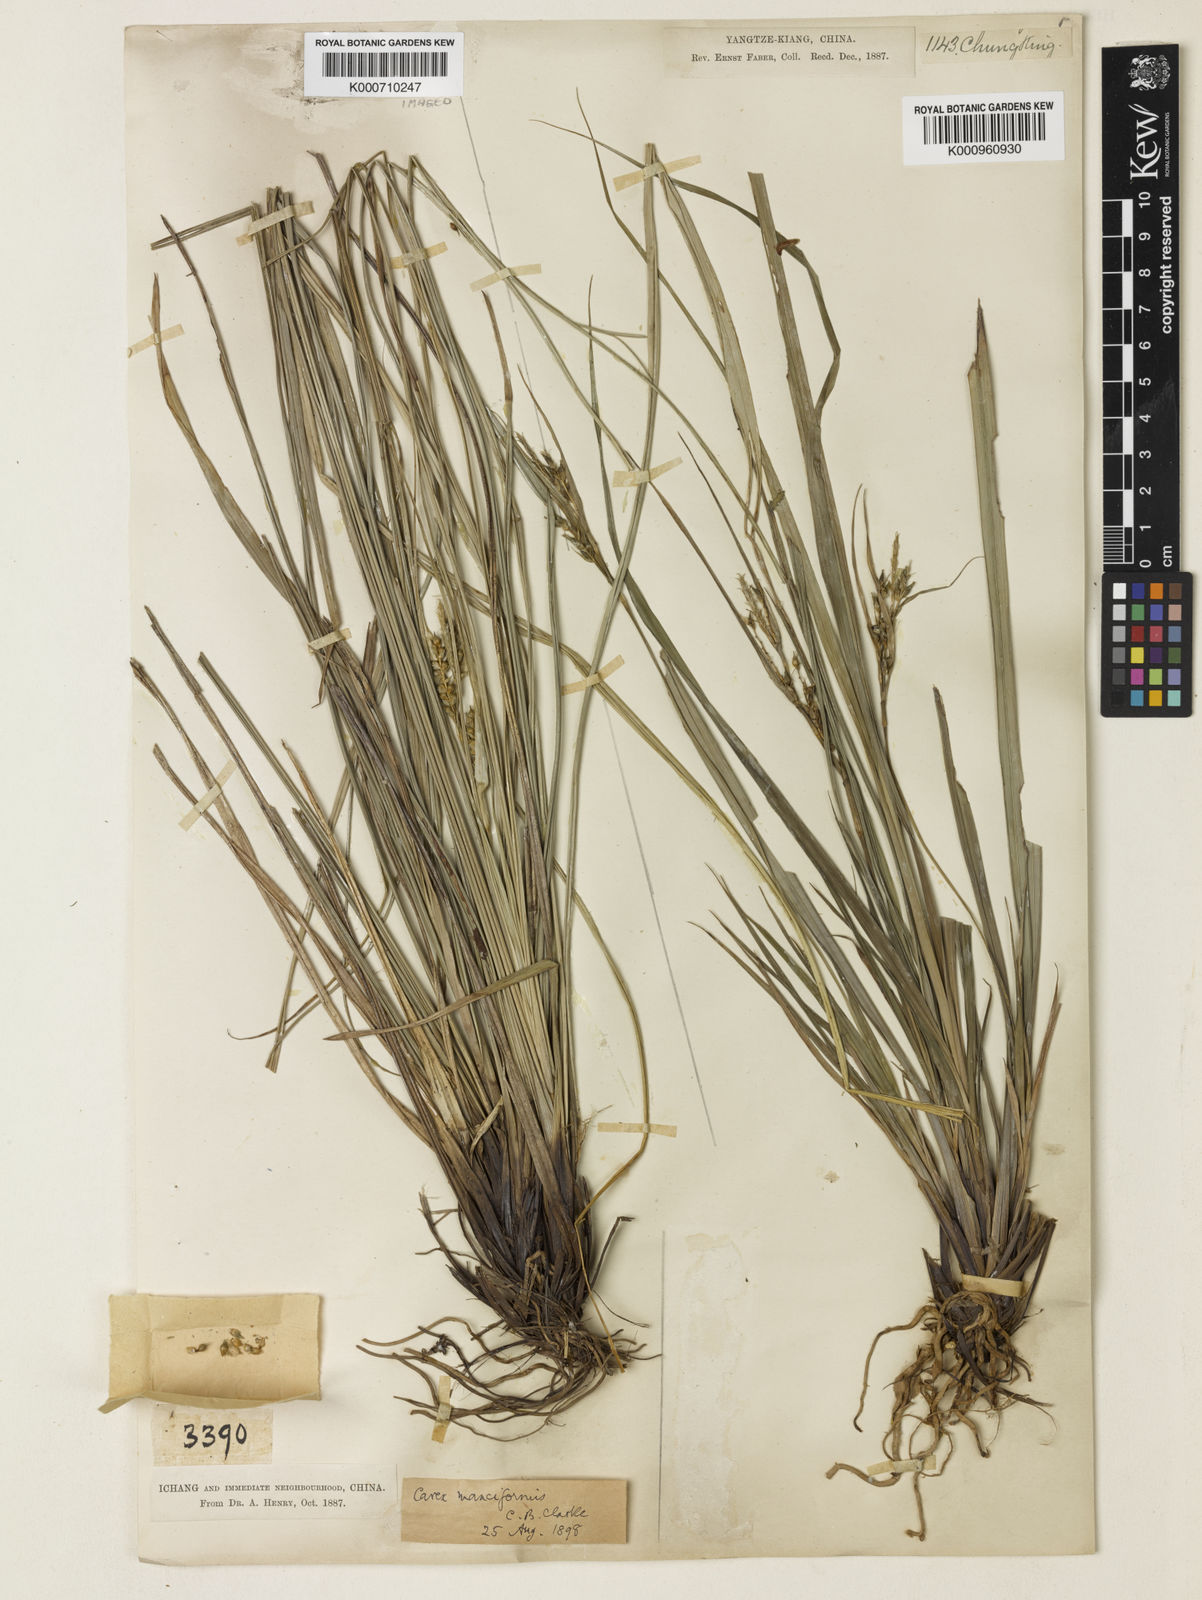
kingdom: Plantae
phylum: Tracheophyta
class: Liliopsida
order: Poales
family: Cyperaceae
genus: Carex
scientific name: Carex manciformis
